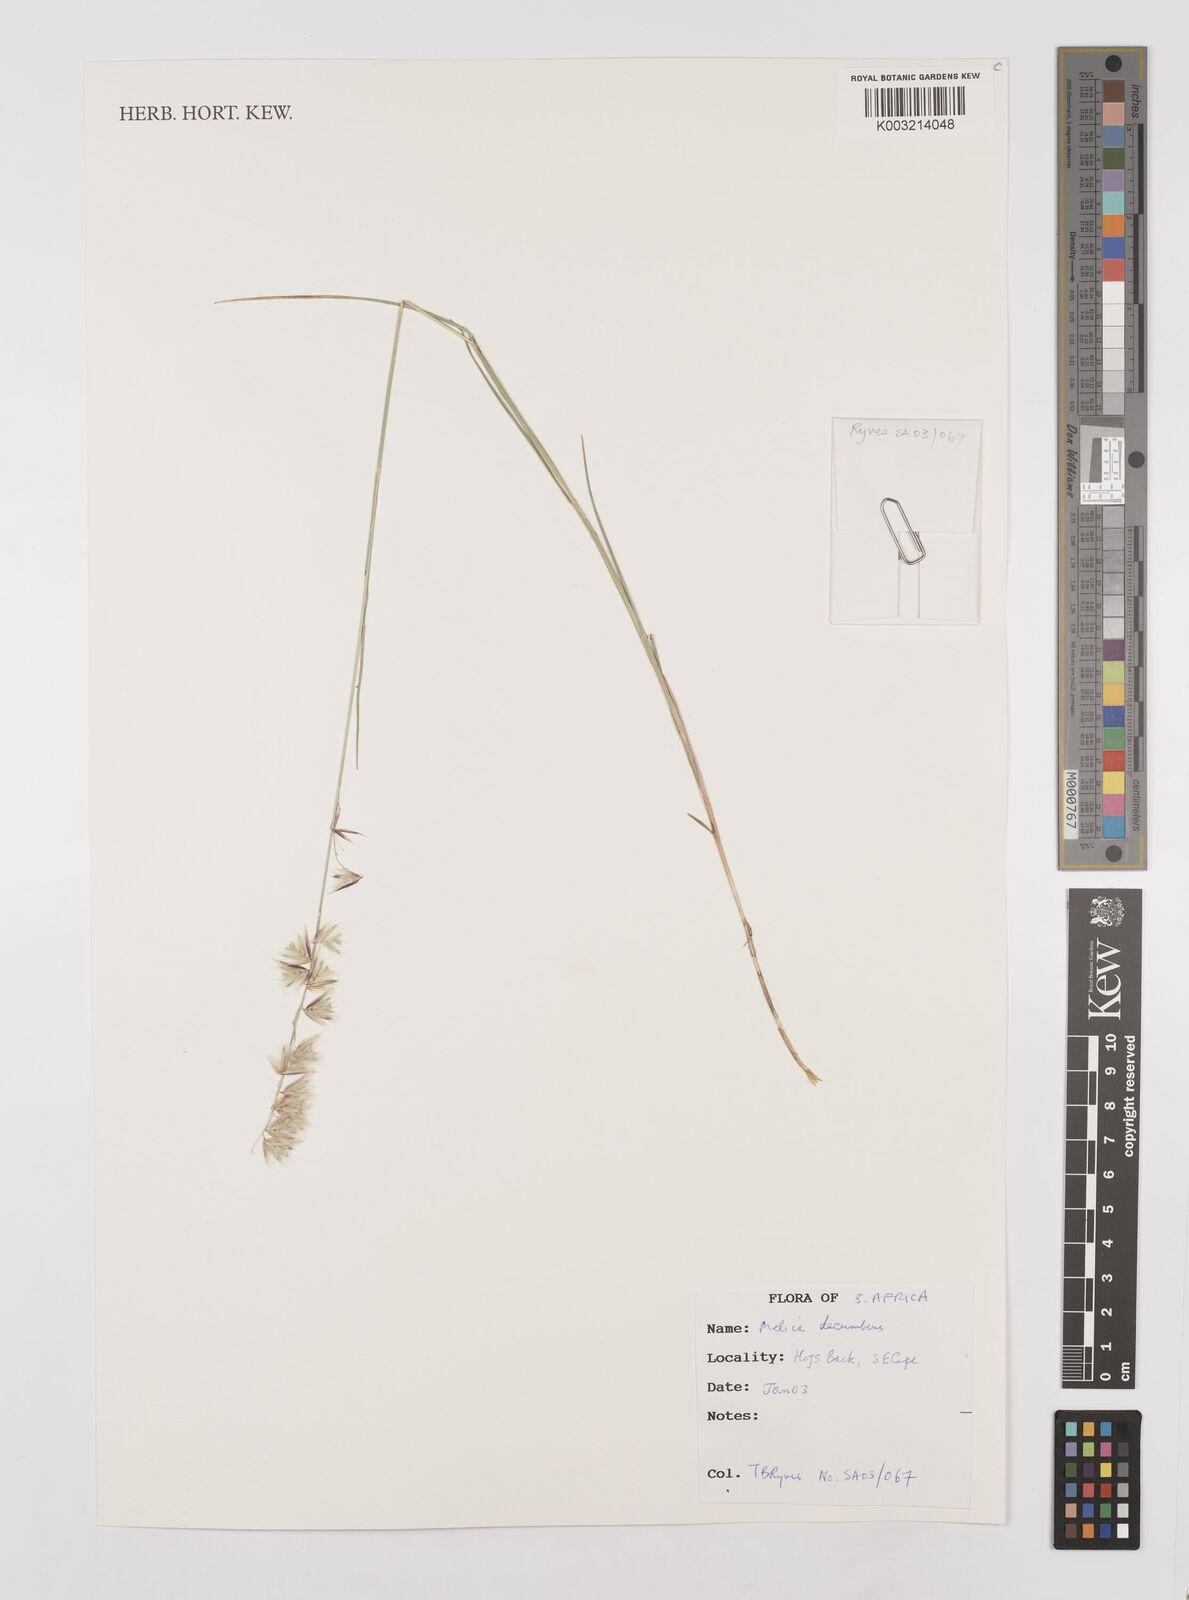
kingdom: Plantae
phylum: Tracheophyta
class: Liliopsida
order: Poales
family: Poaceae
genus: Melica
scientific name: Melica dendroides
